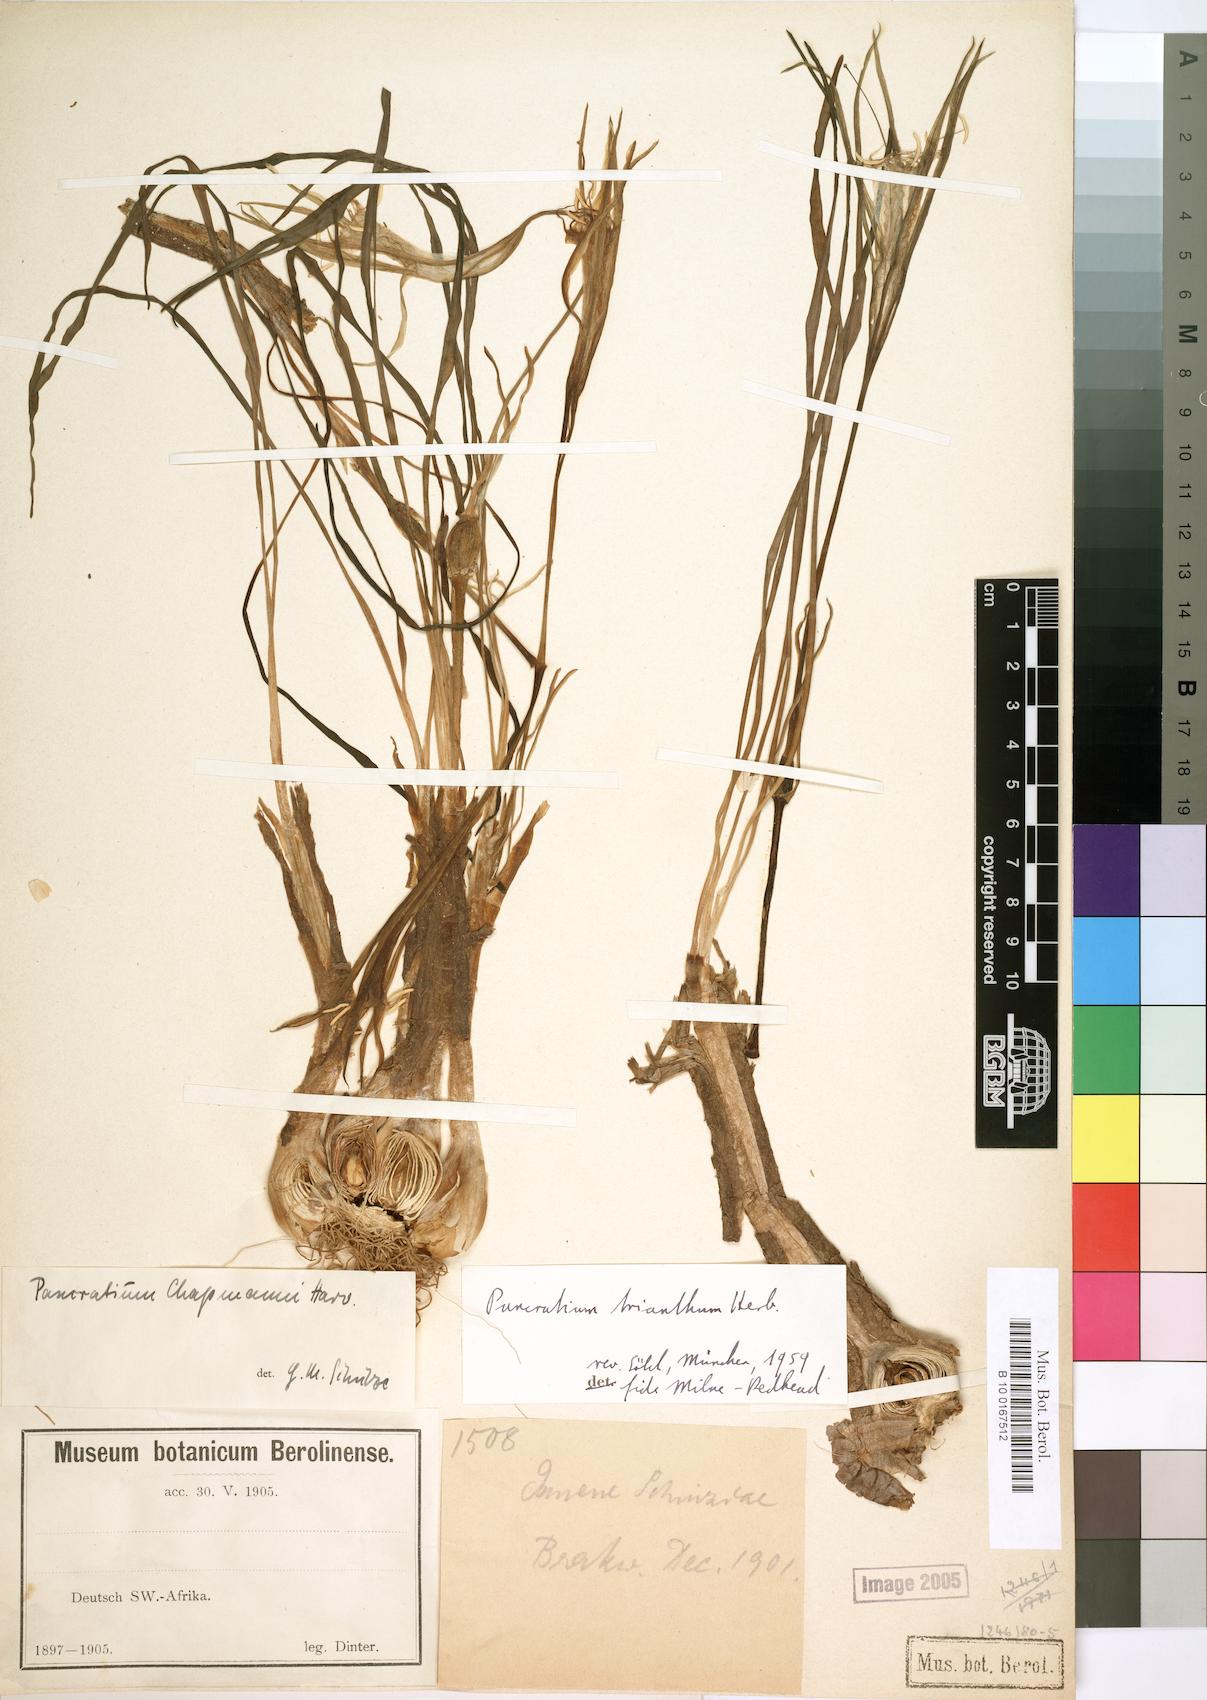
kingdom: Plantae
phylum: Tracheophyta
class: Liliopsida
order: Asparagales
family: Amaryllidaceae
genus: Pancratium
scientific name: Pancratium tenuifolium
